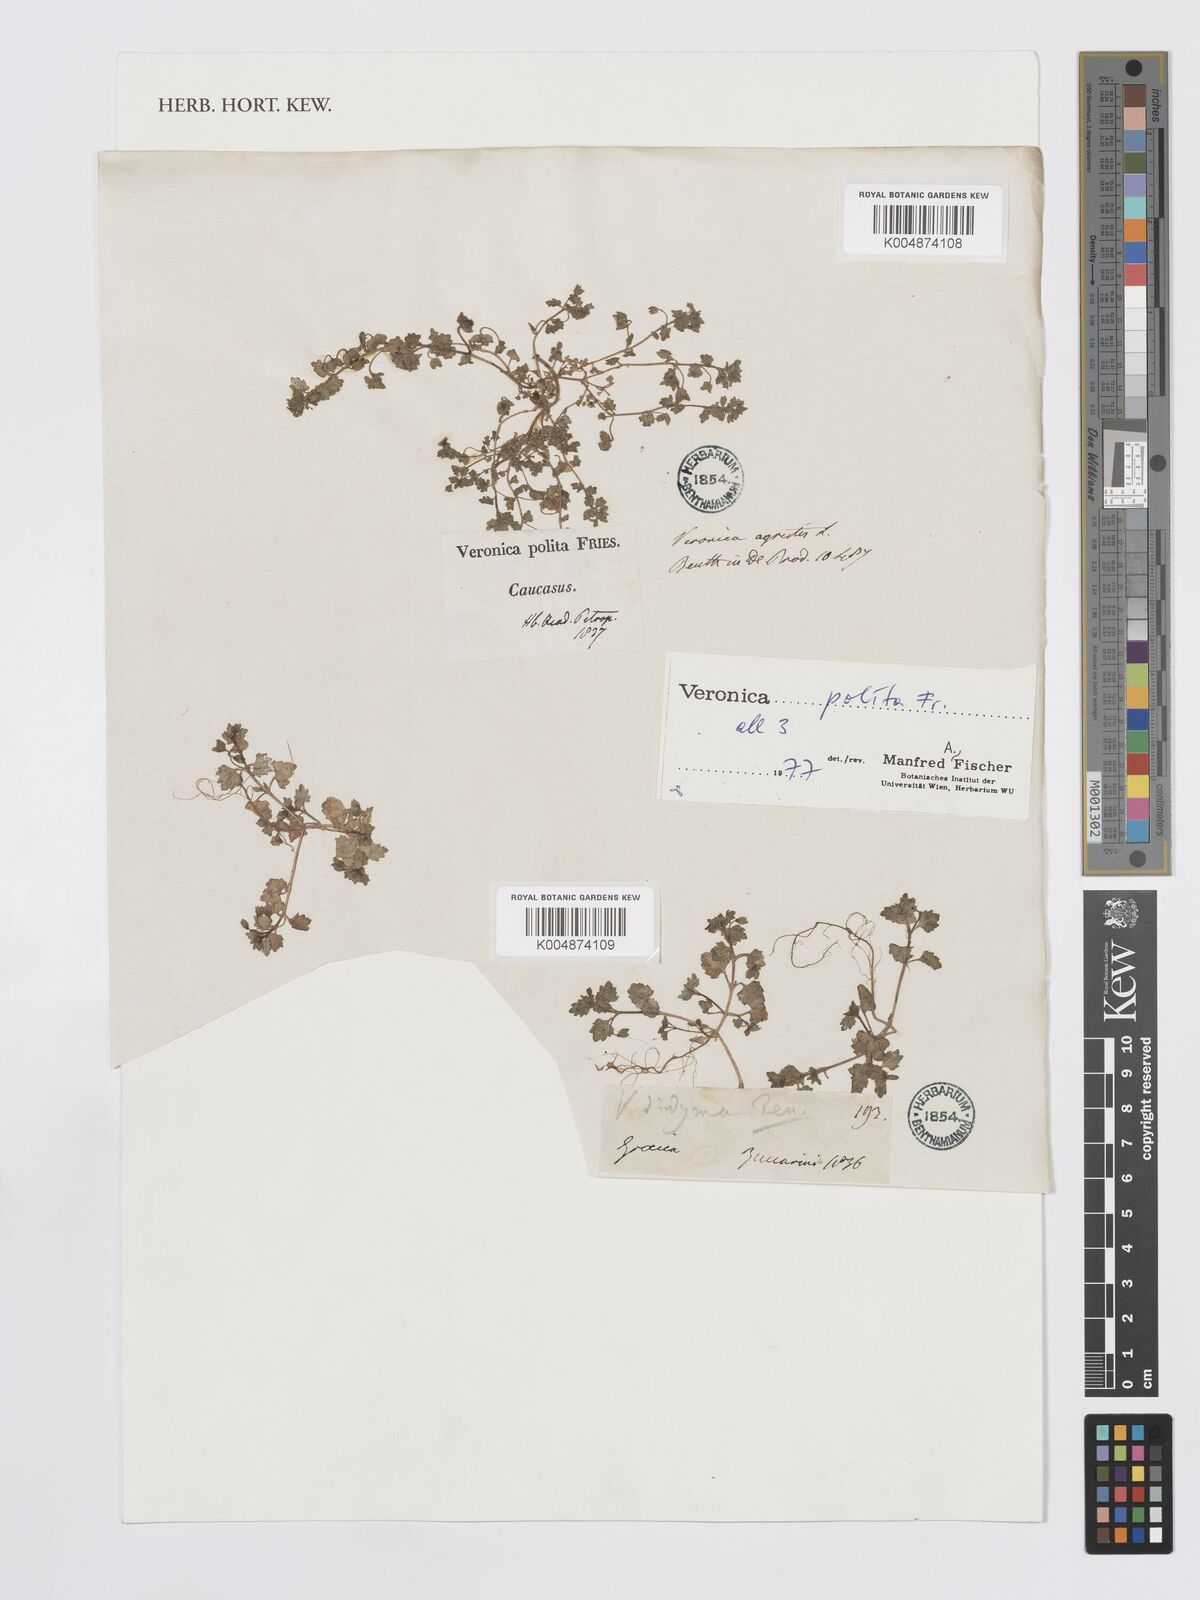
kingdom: Plantae
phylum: Tracheophyta
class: Magnoliopsida
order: Lamiales
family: Plantaginaceae
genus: Veronica
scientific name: Veronica polita
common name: Grey field-speedwell
